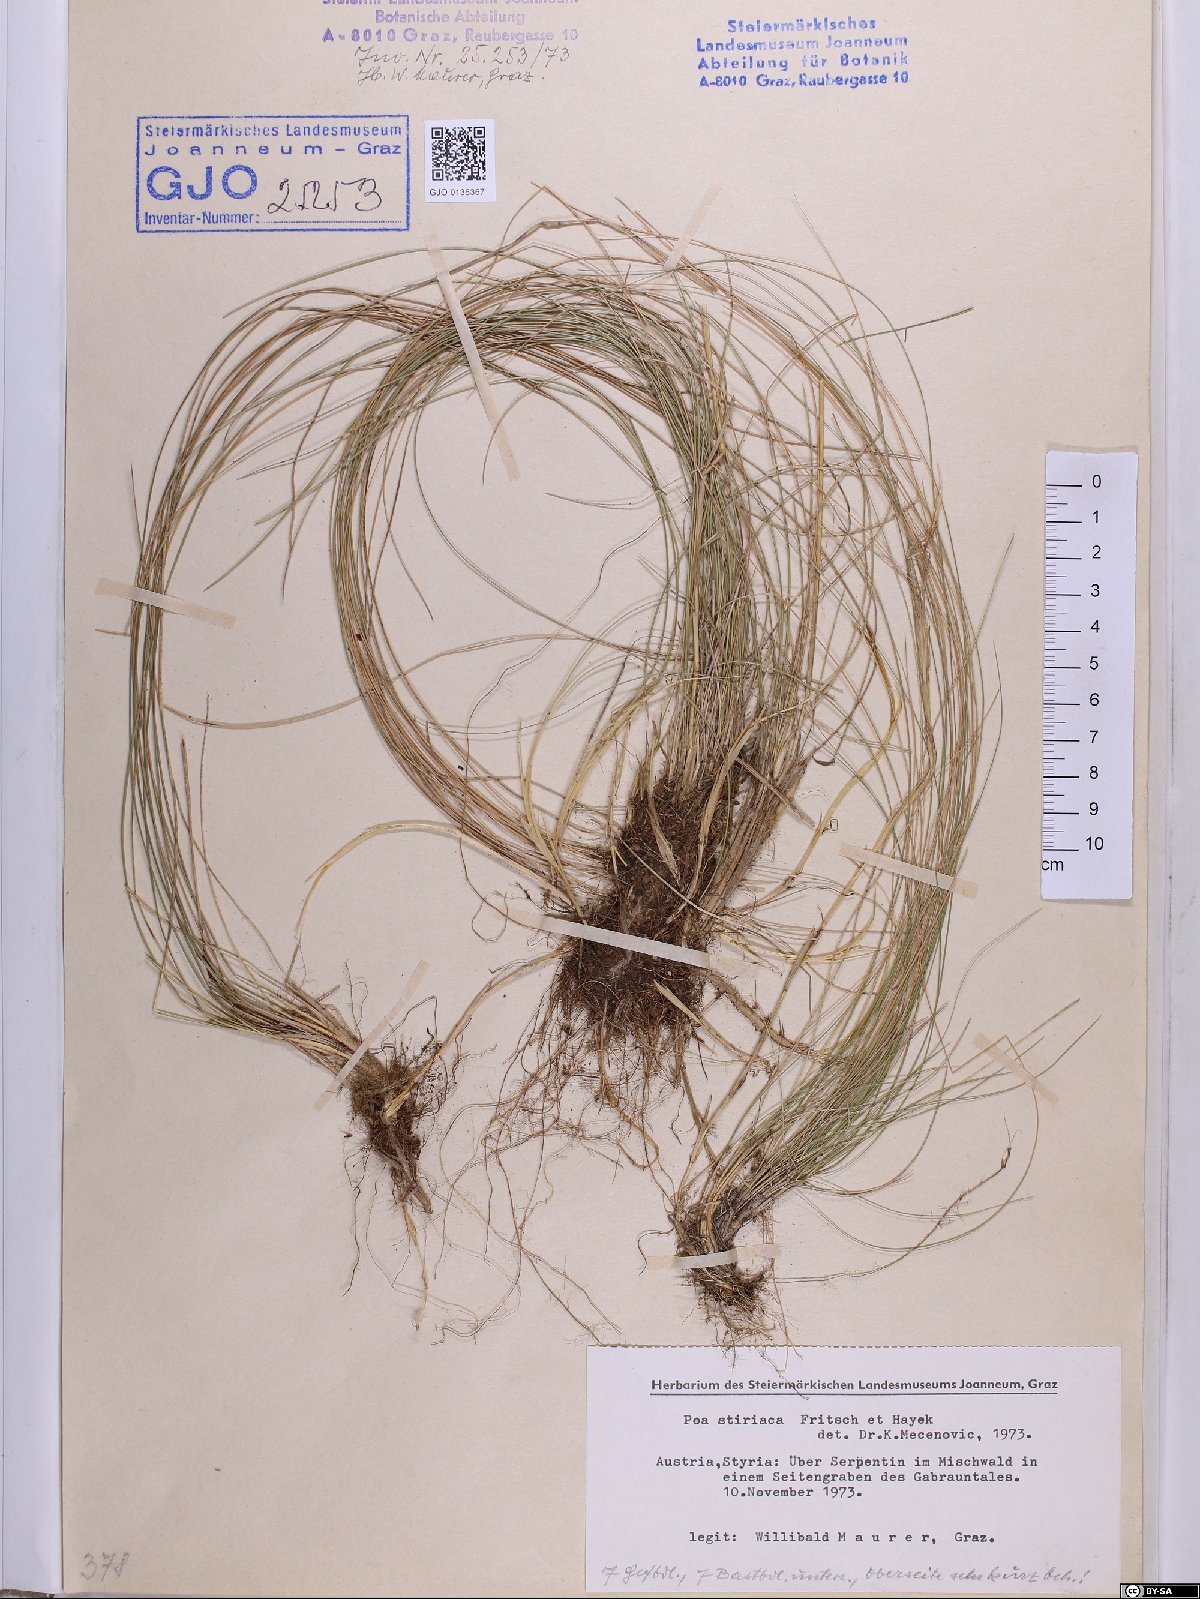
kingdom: Plantae
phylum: Tracheophyta
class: Liliopsida
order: Poales
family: Poaceae
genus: Poa
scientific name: Poa stiriaca
